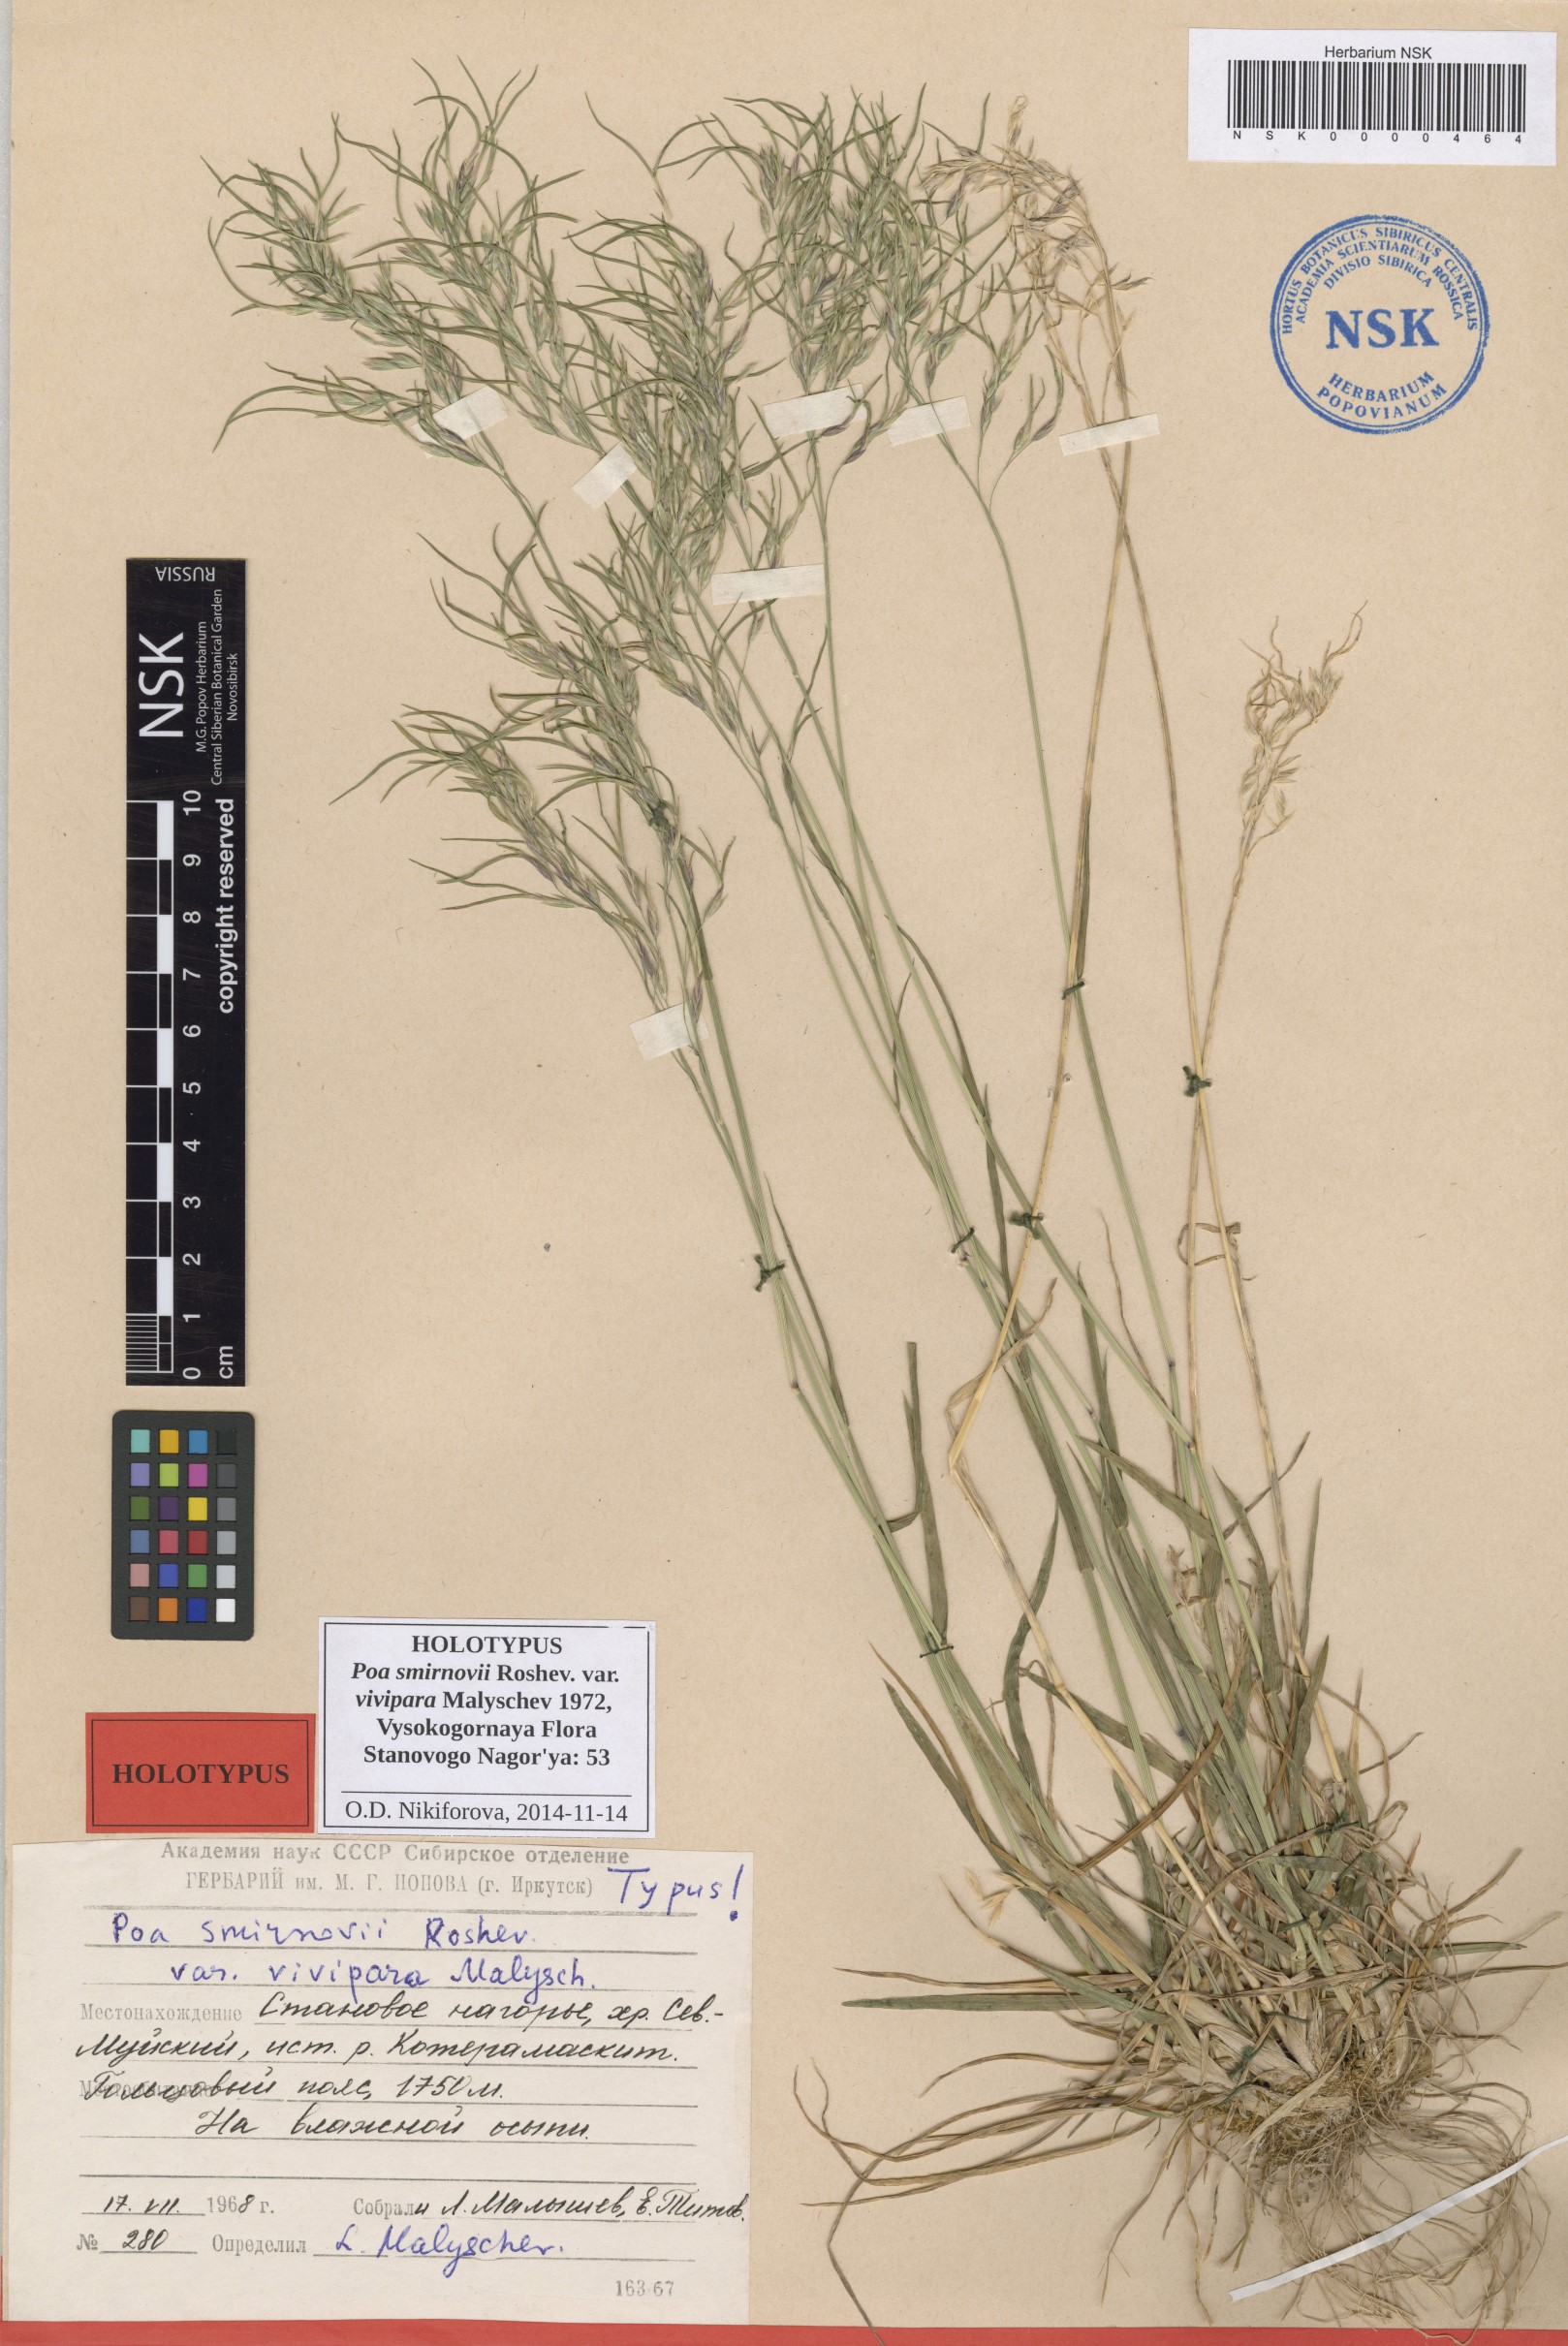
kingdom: Plantae
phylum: Tracheophyta
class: Liliopsida
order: Poales
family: Poaceae
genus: Poa
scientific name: Poa smirnowii
